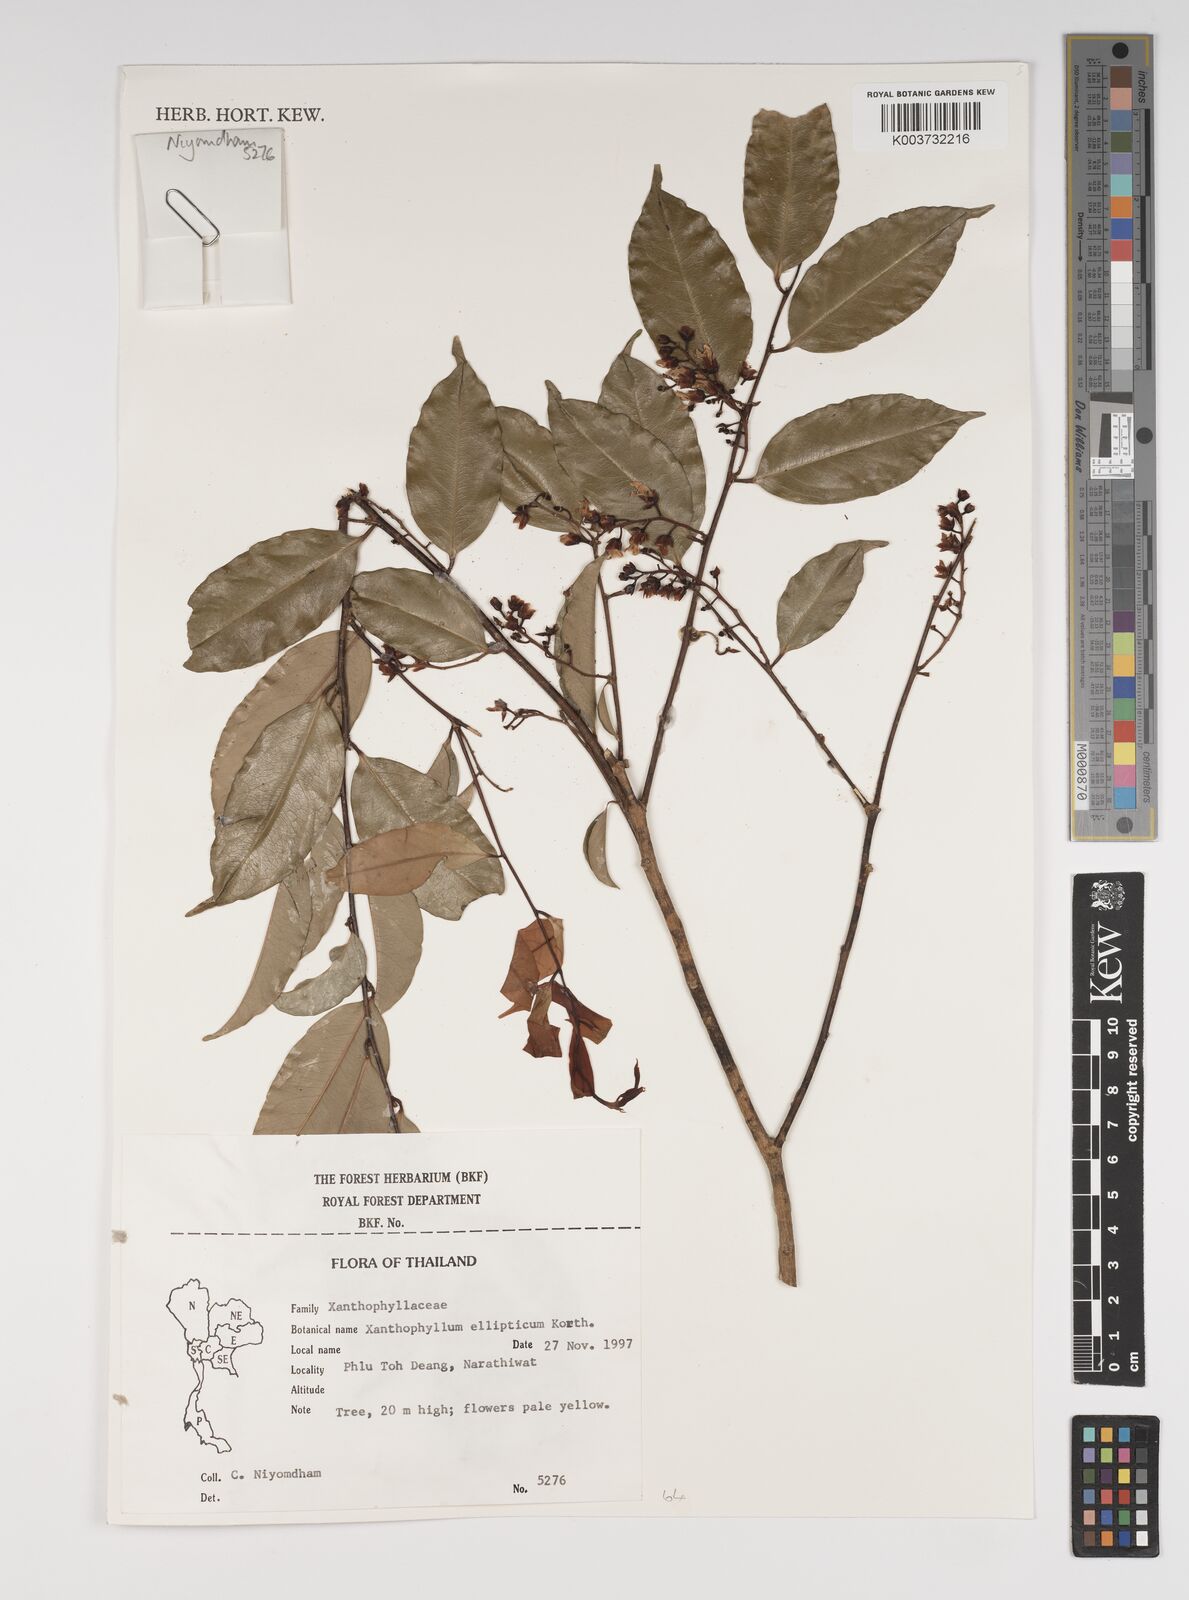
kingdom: Plantae
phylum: Tracheophyta
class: Magnoliopsida
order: Fabales
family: Polygalaceae
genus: Xanthophyllum
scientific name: Xanthophyllum ellipticum
